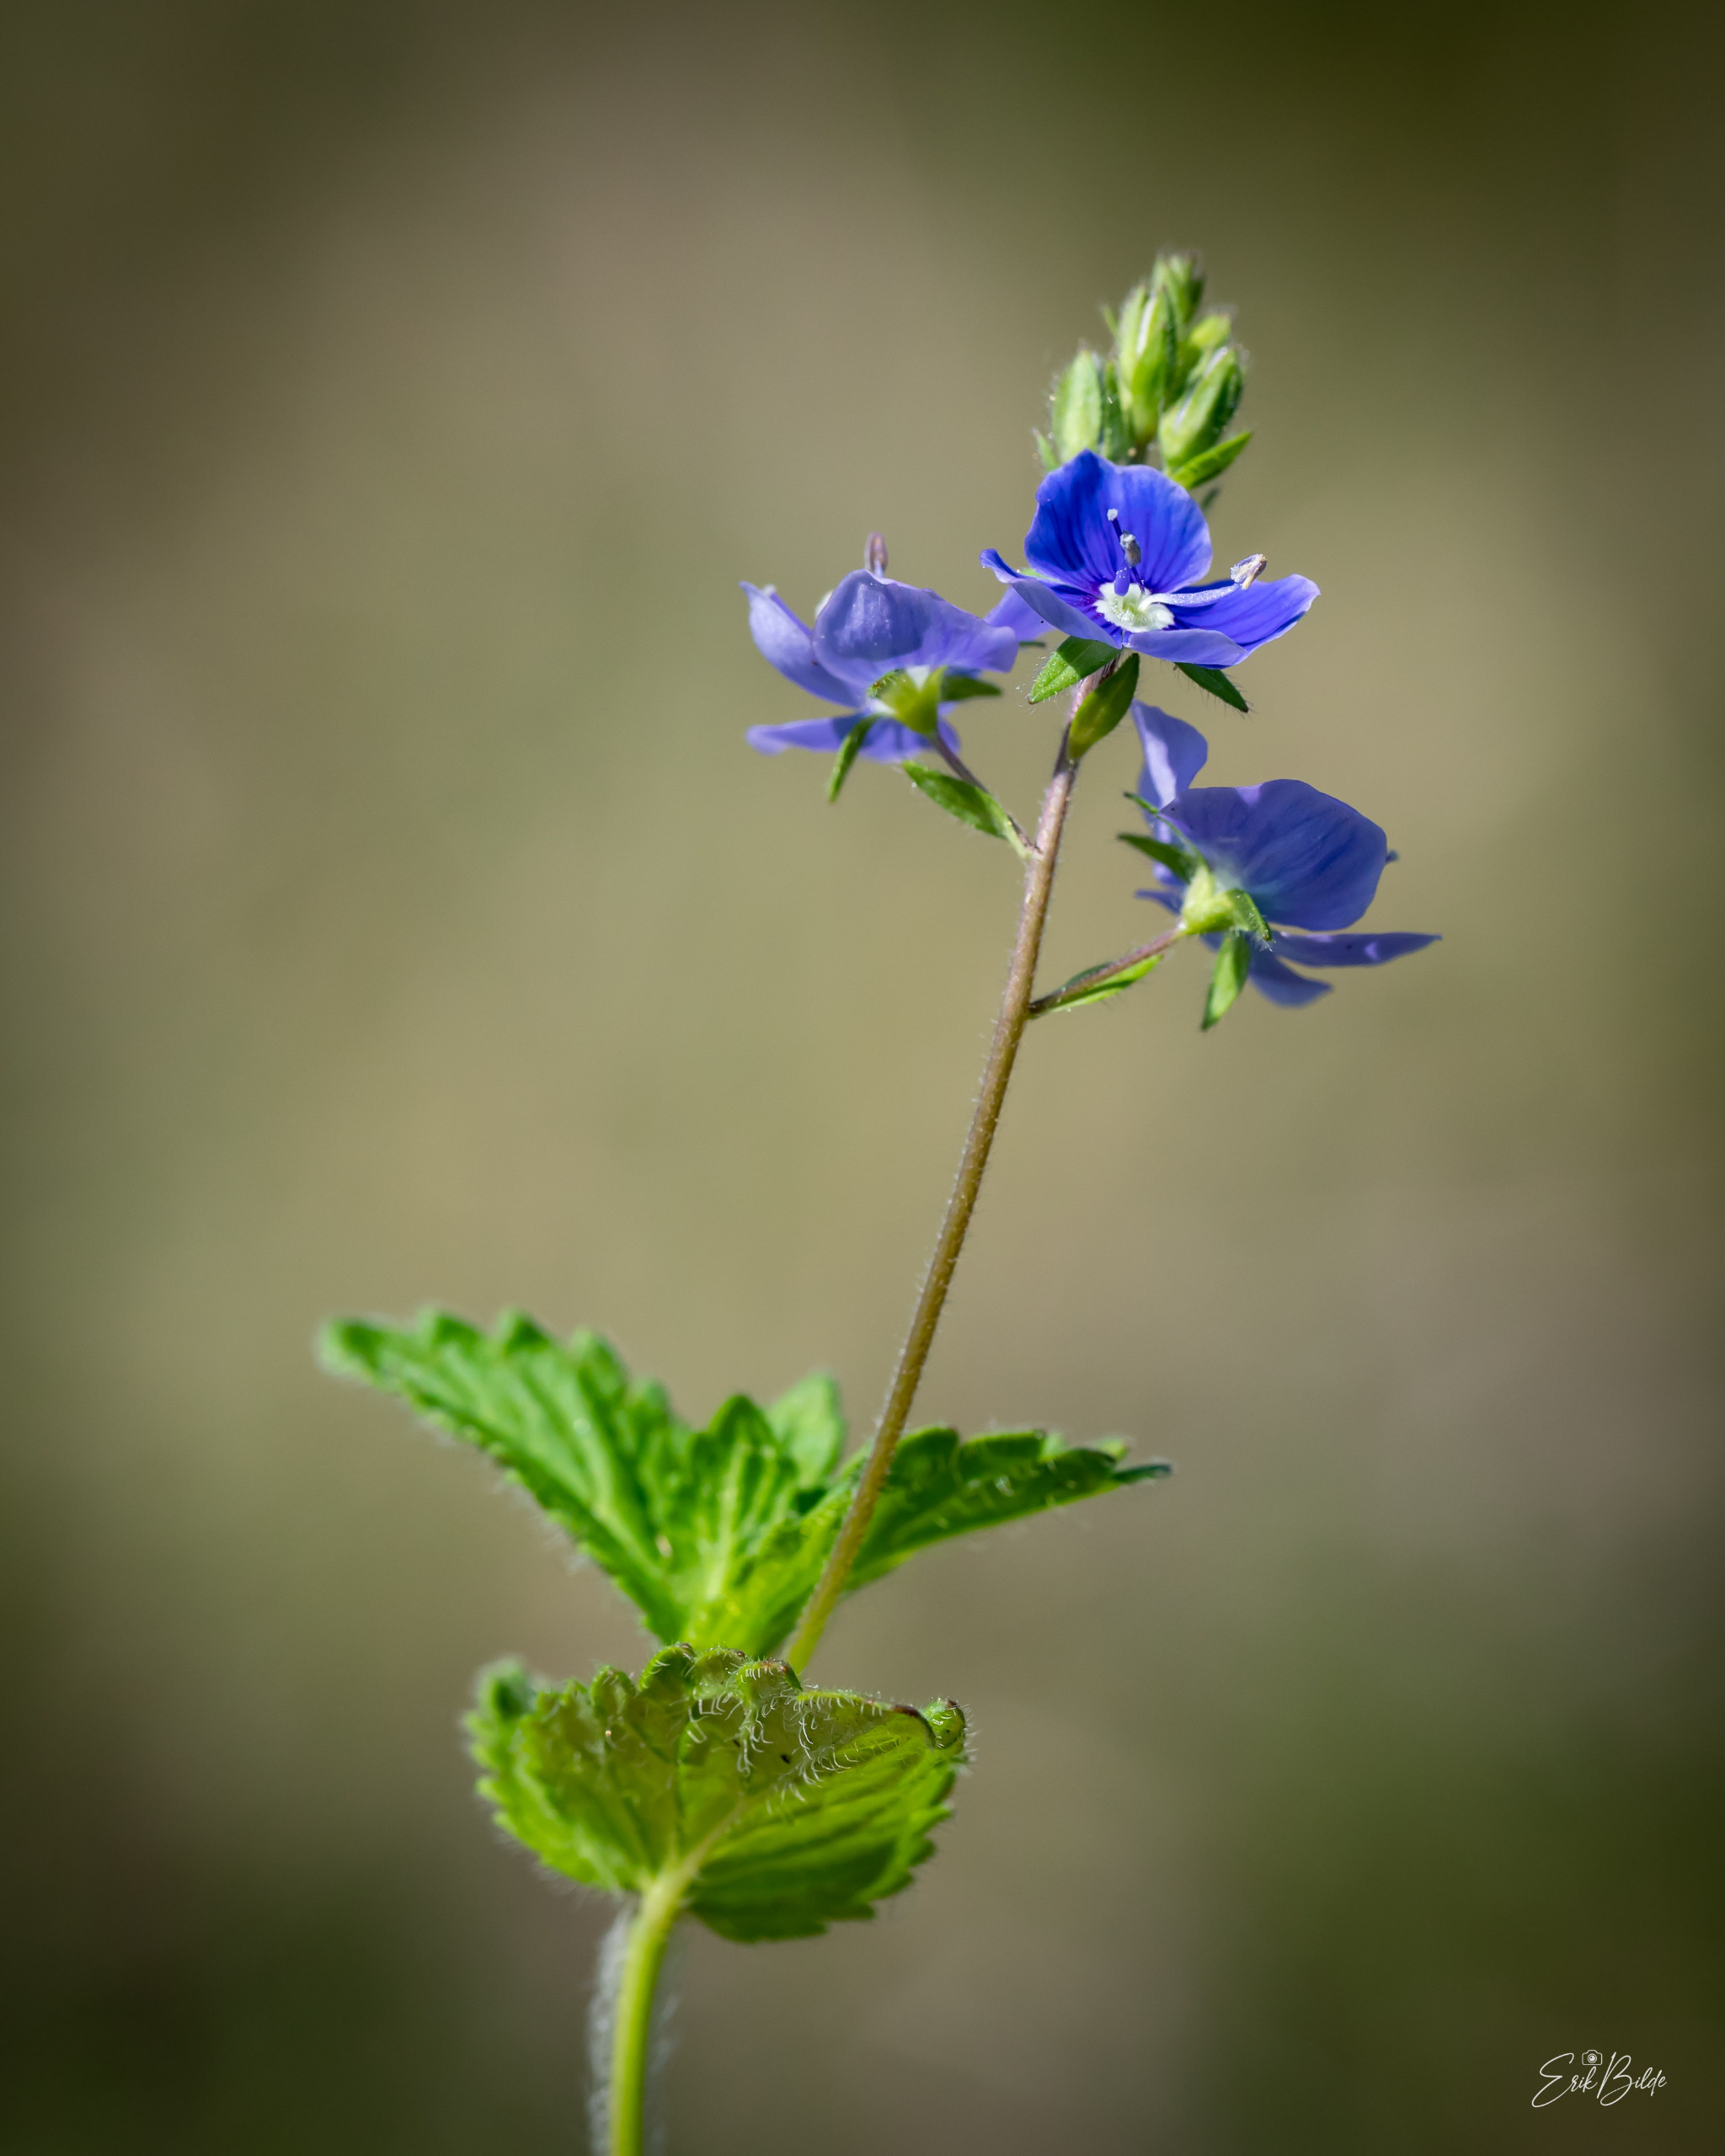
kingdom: Plantae
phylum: Tracheophyta
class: Magnoliopsida
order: Lamiales
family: Plantaginaceae
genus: Veronica
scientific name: Veronica chamaedrys
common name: Tveskægget ærenpris
